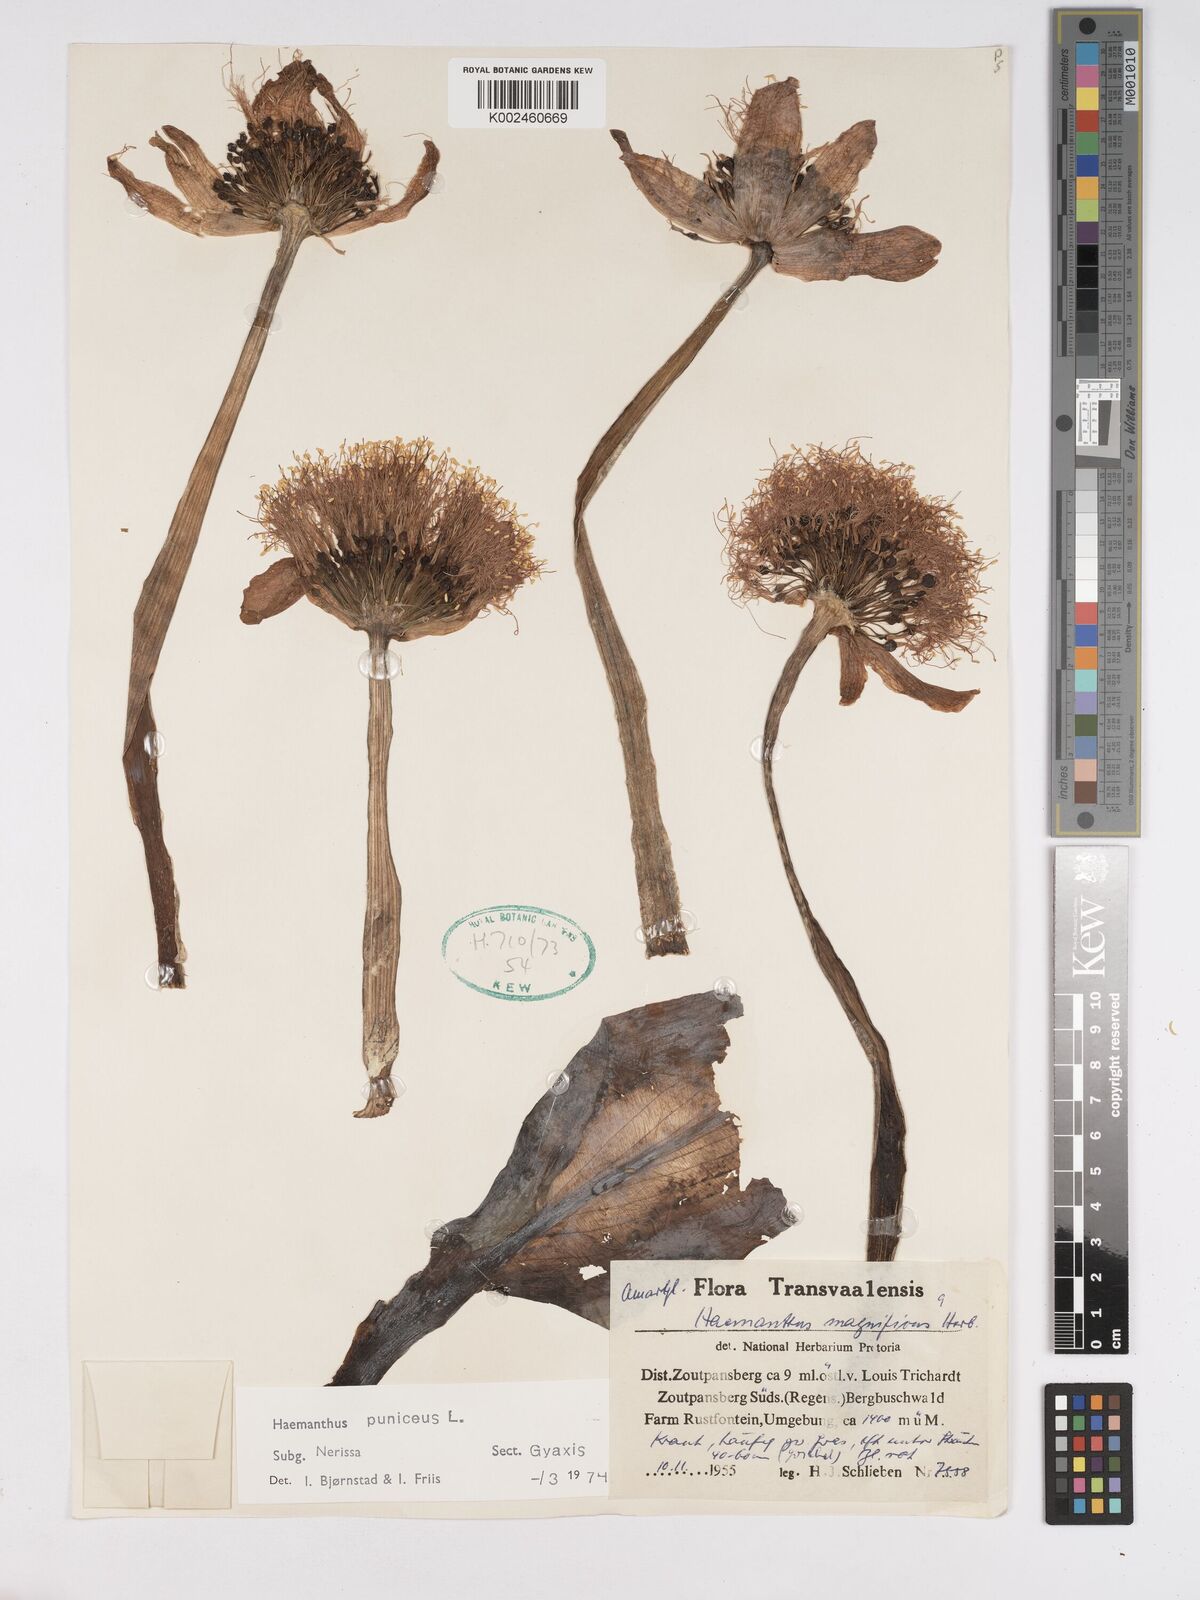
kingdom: Plantae
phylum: Tracheophyta
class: Liliopsida
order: Asparagales
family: Amaryllidaceae
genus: Scadoxus
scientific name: Scadoxus puniceus
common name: Royal-paintbrush
